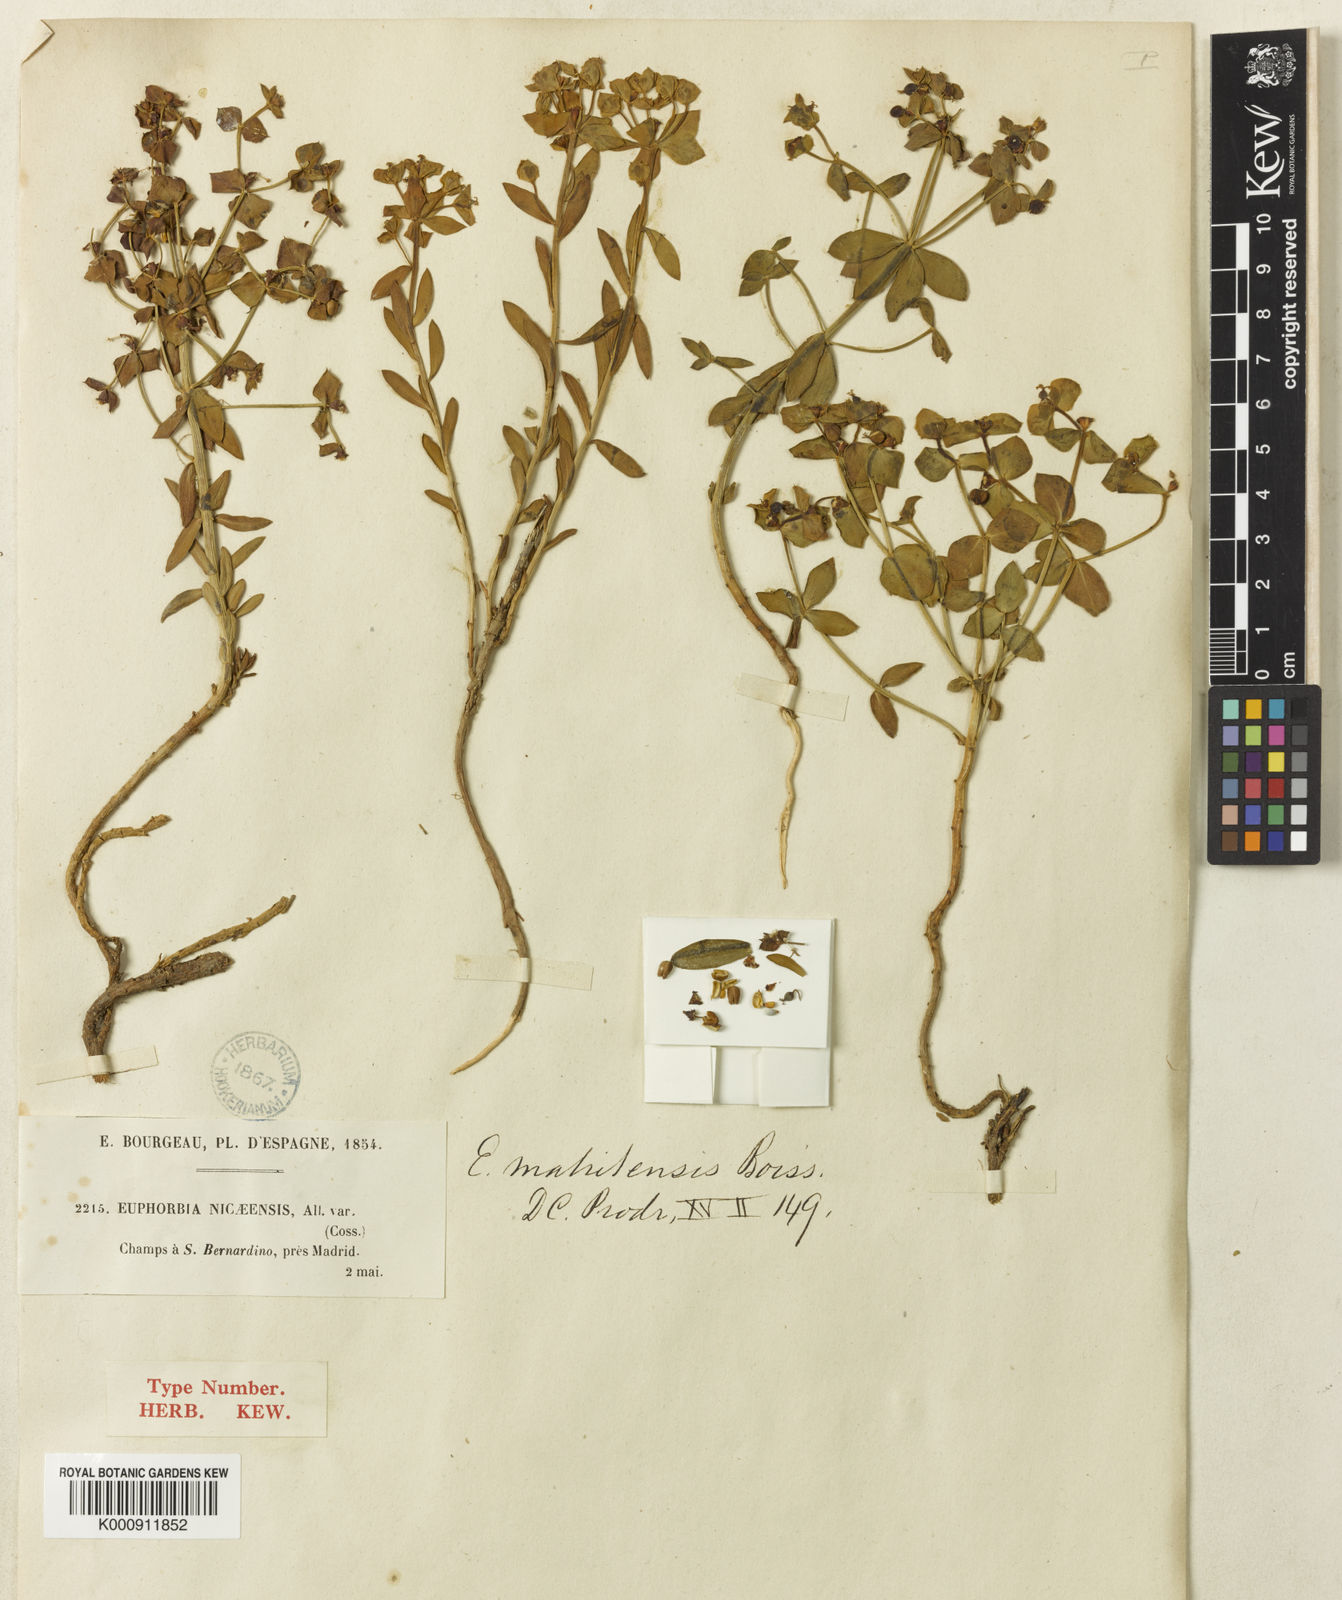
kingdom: Plantae
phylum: Tracheophyta
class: Magnoliopsida
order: Malpighiales
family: Euphorbiaceae
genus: Euphorbia
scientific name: Euphorbia matritensis
